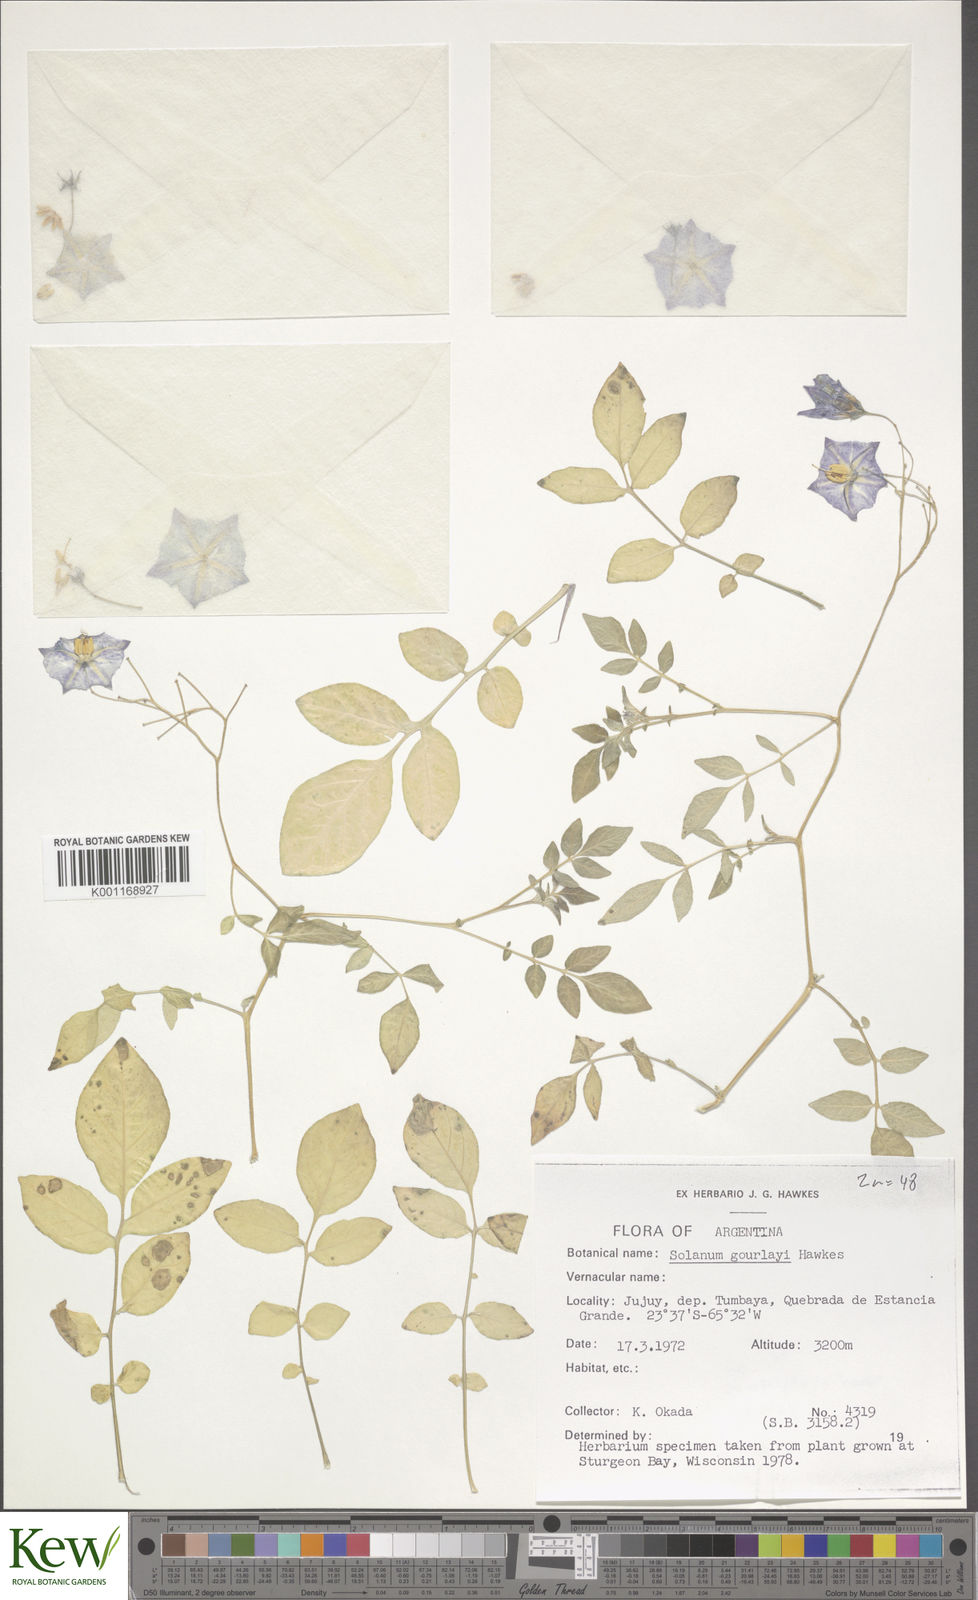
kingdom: Plantae
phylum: Tracheophyta
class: Magnoliopsida
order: Solanales
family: Solanaceae
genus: Solanum
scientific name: Solanum brevicaule
